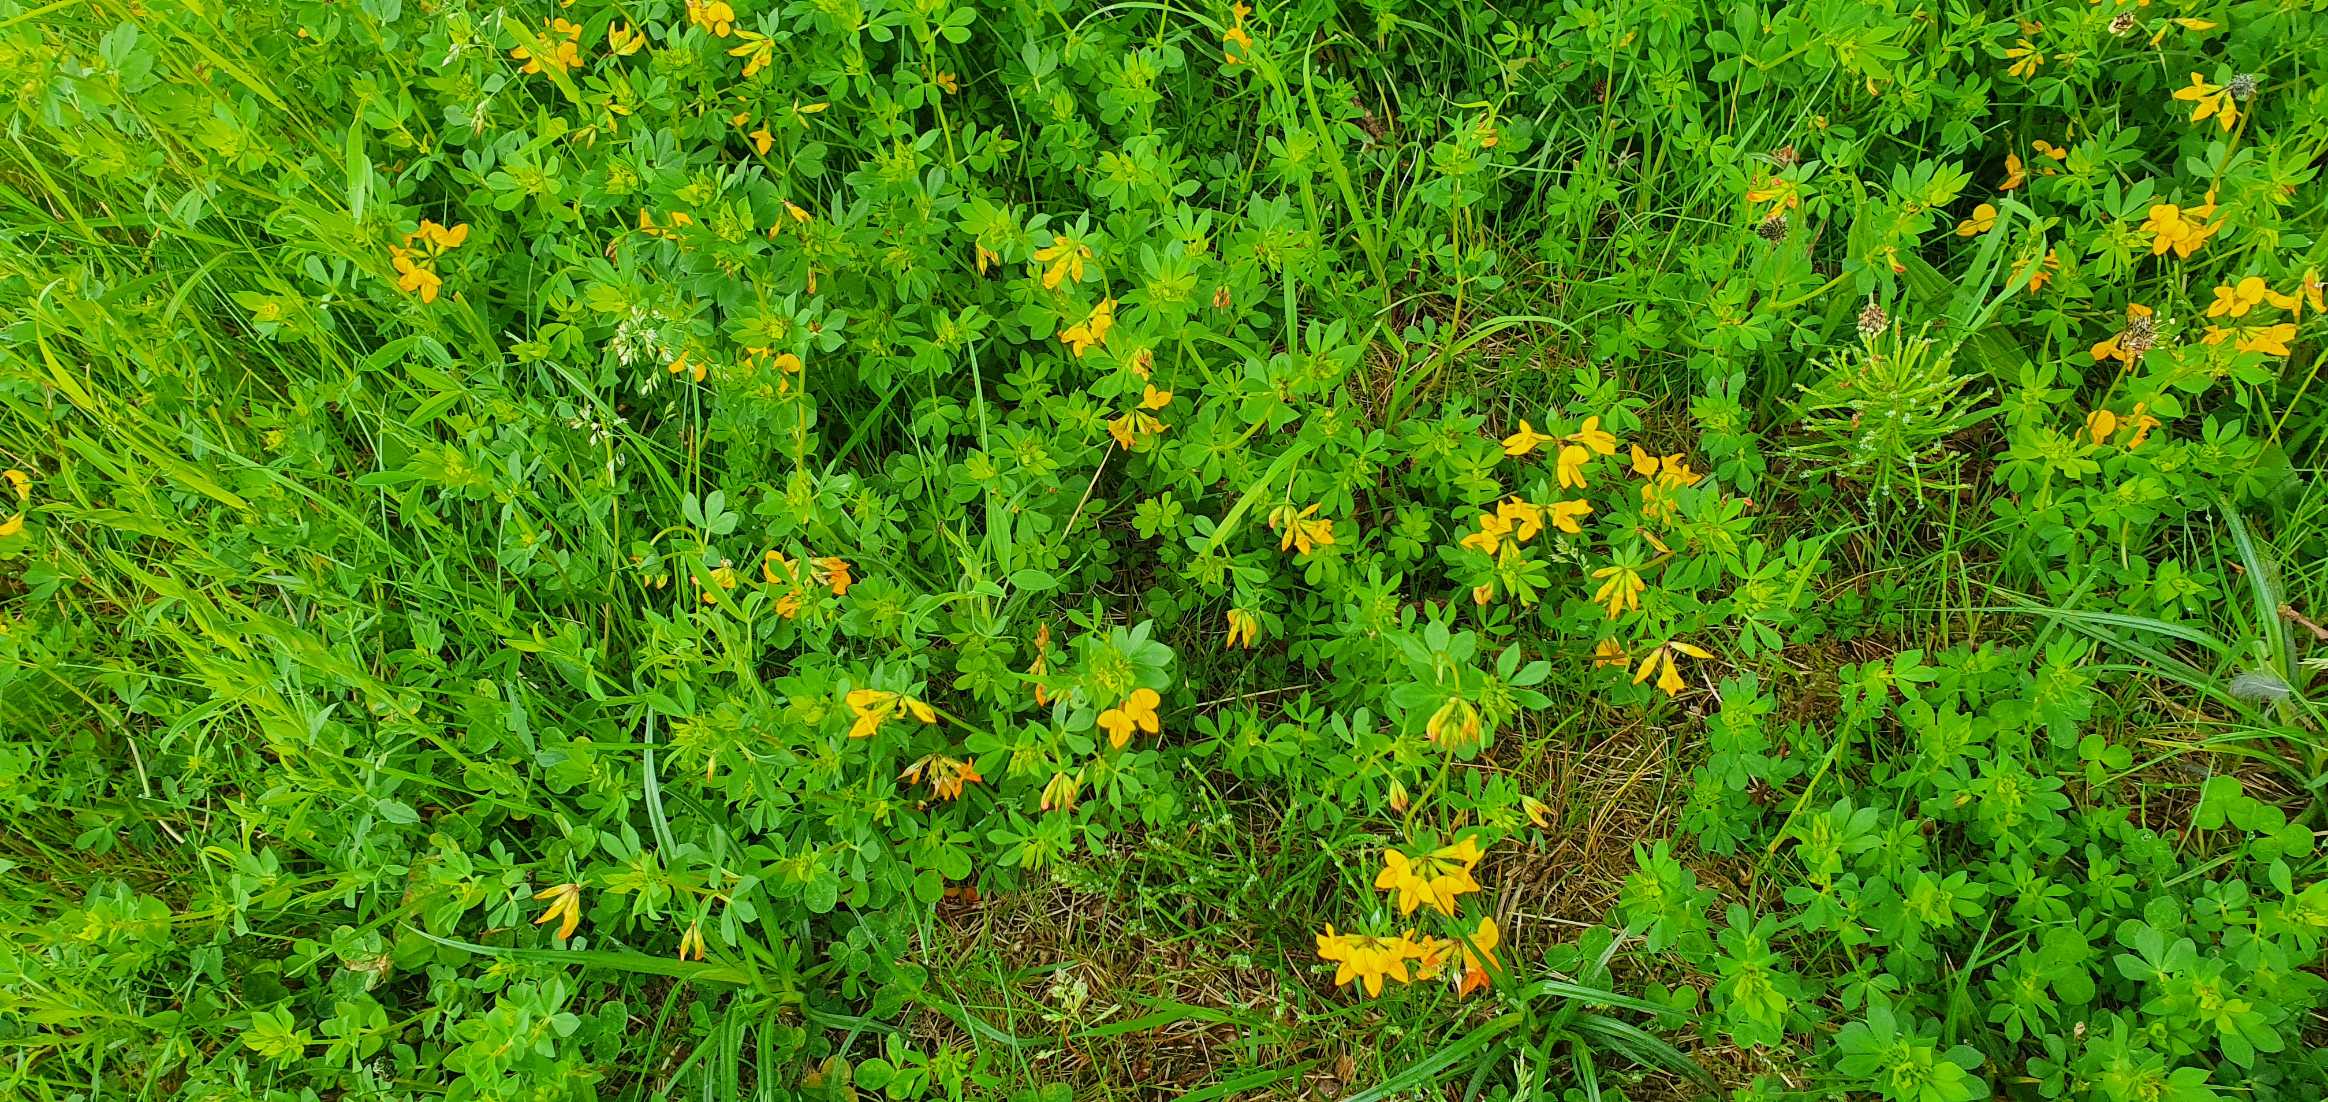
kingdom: Plantae
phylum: Tracheophyta
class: Magnoliopsida
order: Fabales
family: Fabaceae
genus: Lotus
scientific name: Lotus corniculatus
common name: Almindelig kællingetand
